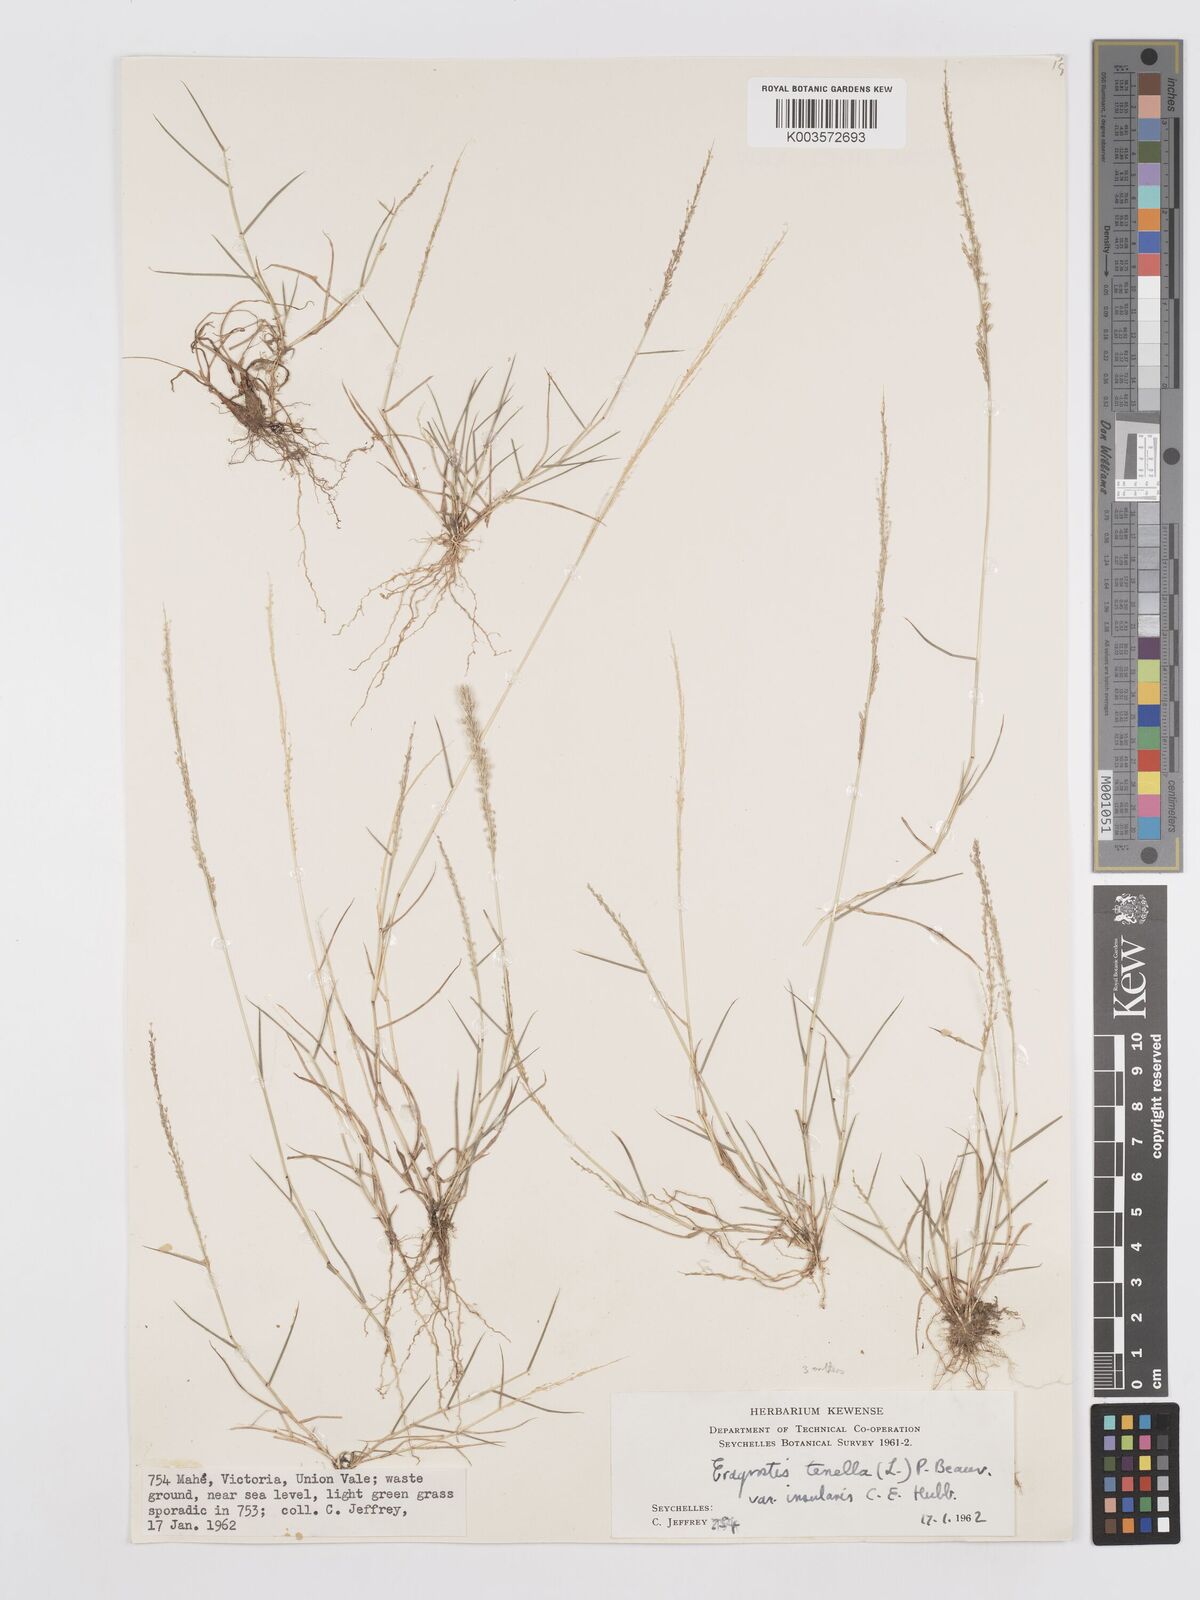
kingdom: Plantae
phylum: Tracheophyta
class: Liliopsida
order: Poales
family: Poaceae
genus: Eragrostis
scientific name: Eragrostis tenella
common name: Japanese lovegrass
